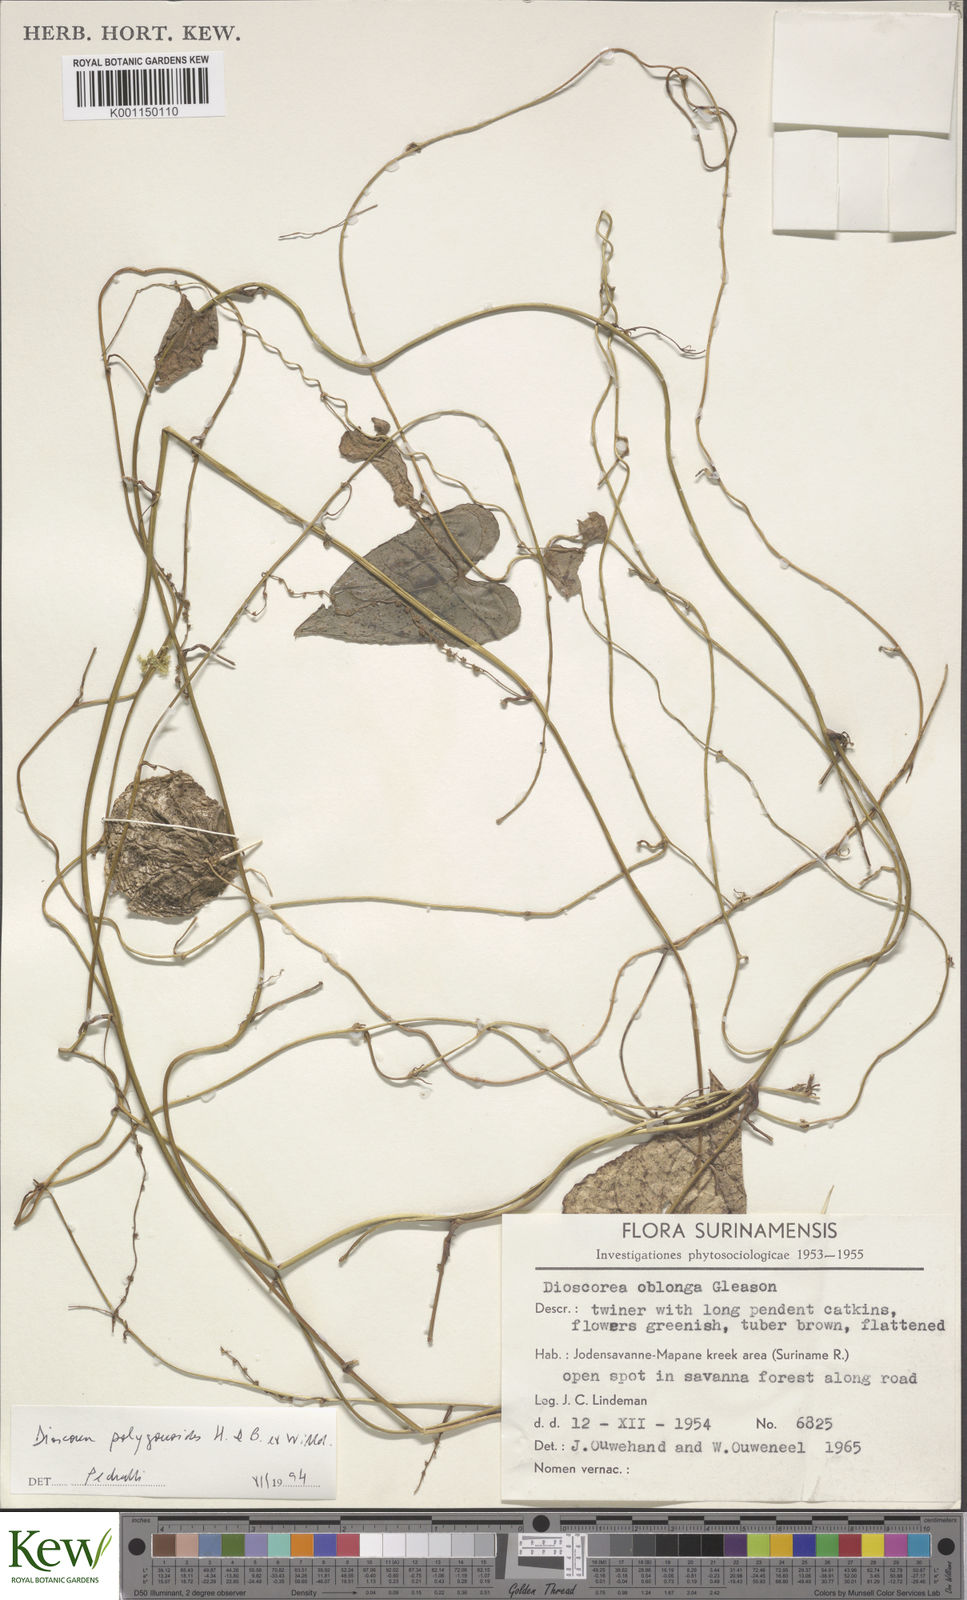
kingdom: Plantae
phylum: Tracheophyta
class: Liliopsida
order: Dioscoreales
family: Dioscoreaceae
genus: Dioscorea
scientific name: Dioscorea oblonga
